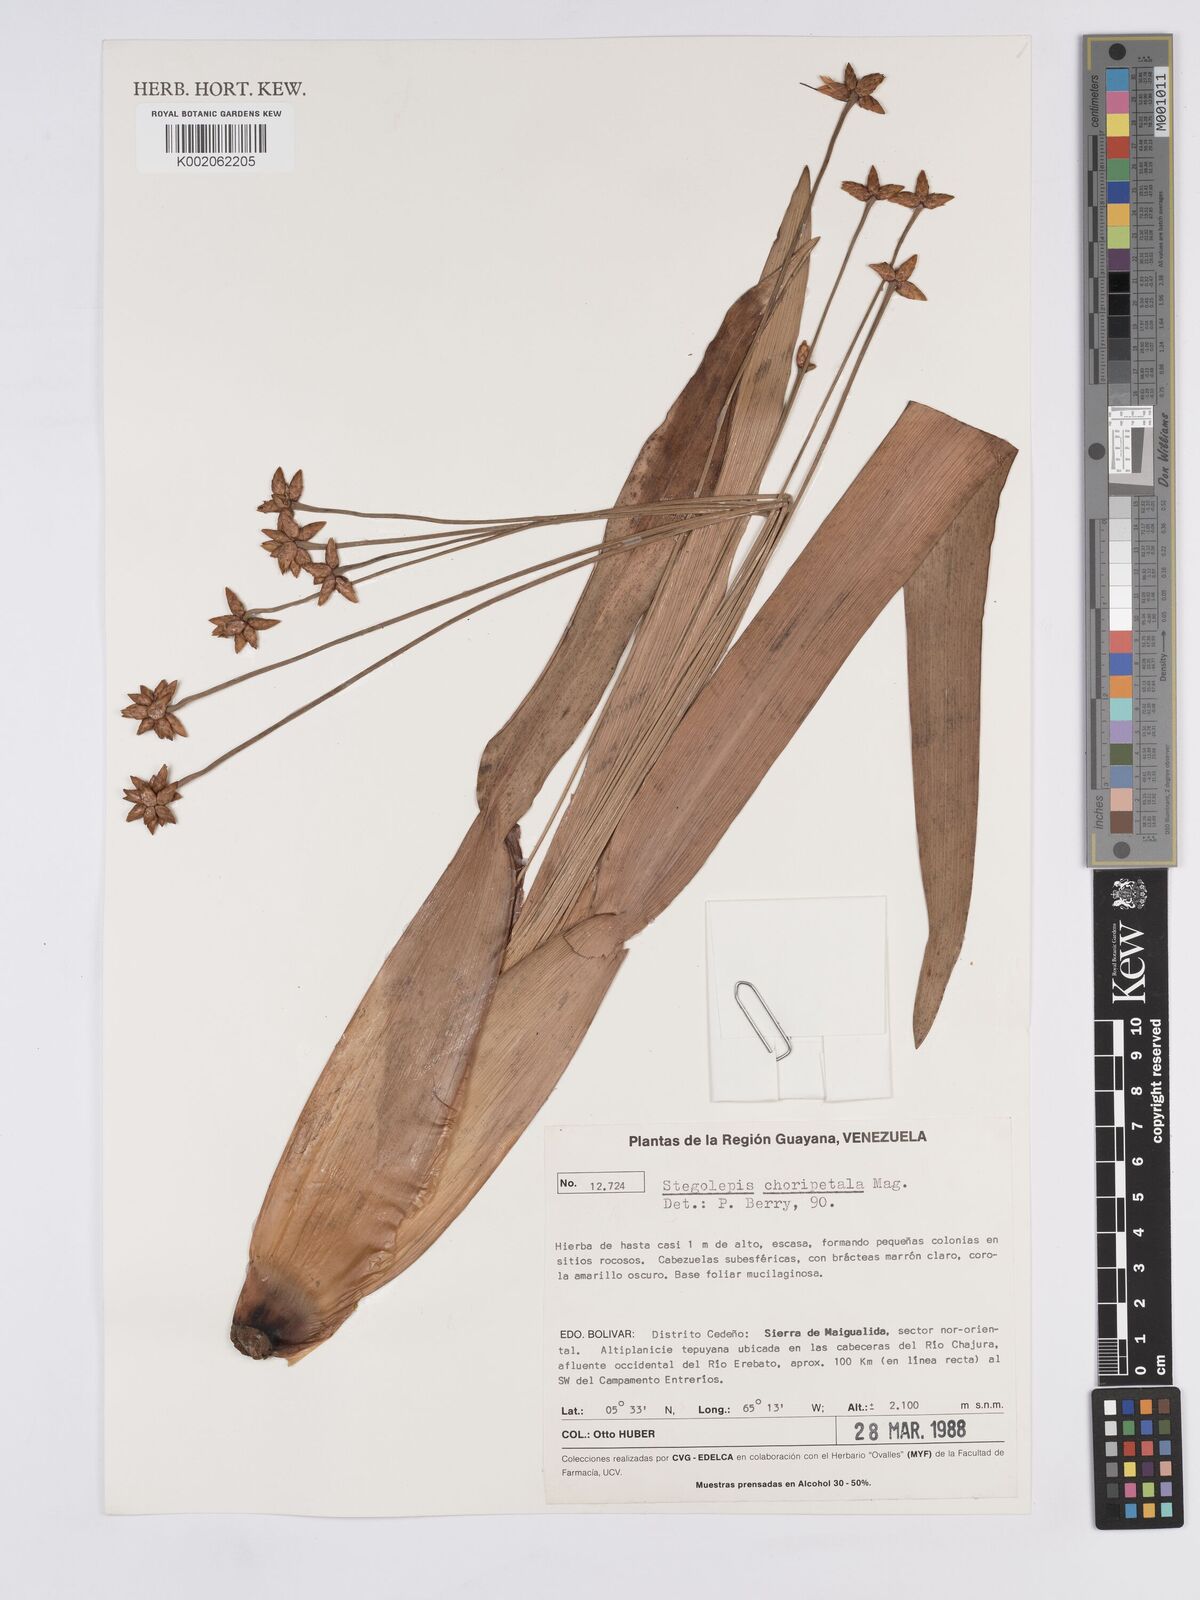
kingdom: Plantae
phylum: Tracheophyta
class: Liliopsida
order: Poales
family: Rapateaceae
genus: Stegolepis
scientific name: Stegolepis choripetala
